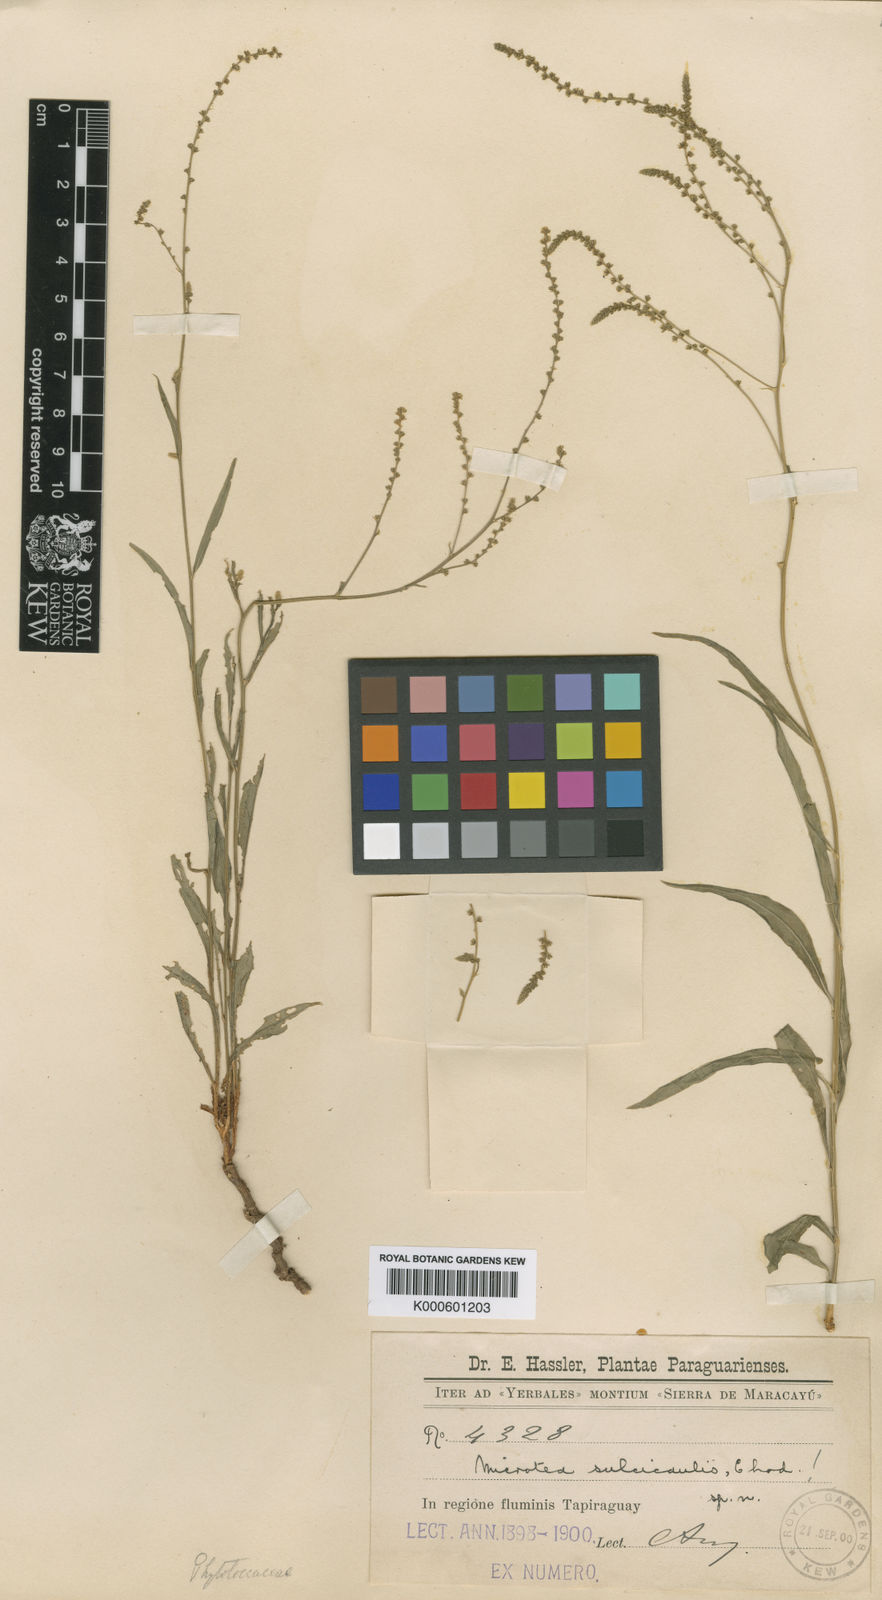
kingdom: Plantae
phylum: Tracheophyta
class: Magnoliopsida
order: Caryophyllales
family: Microteaceae
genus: Microtea
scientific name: Microtea sulcicaulis
